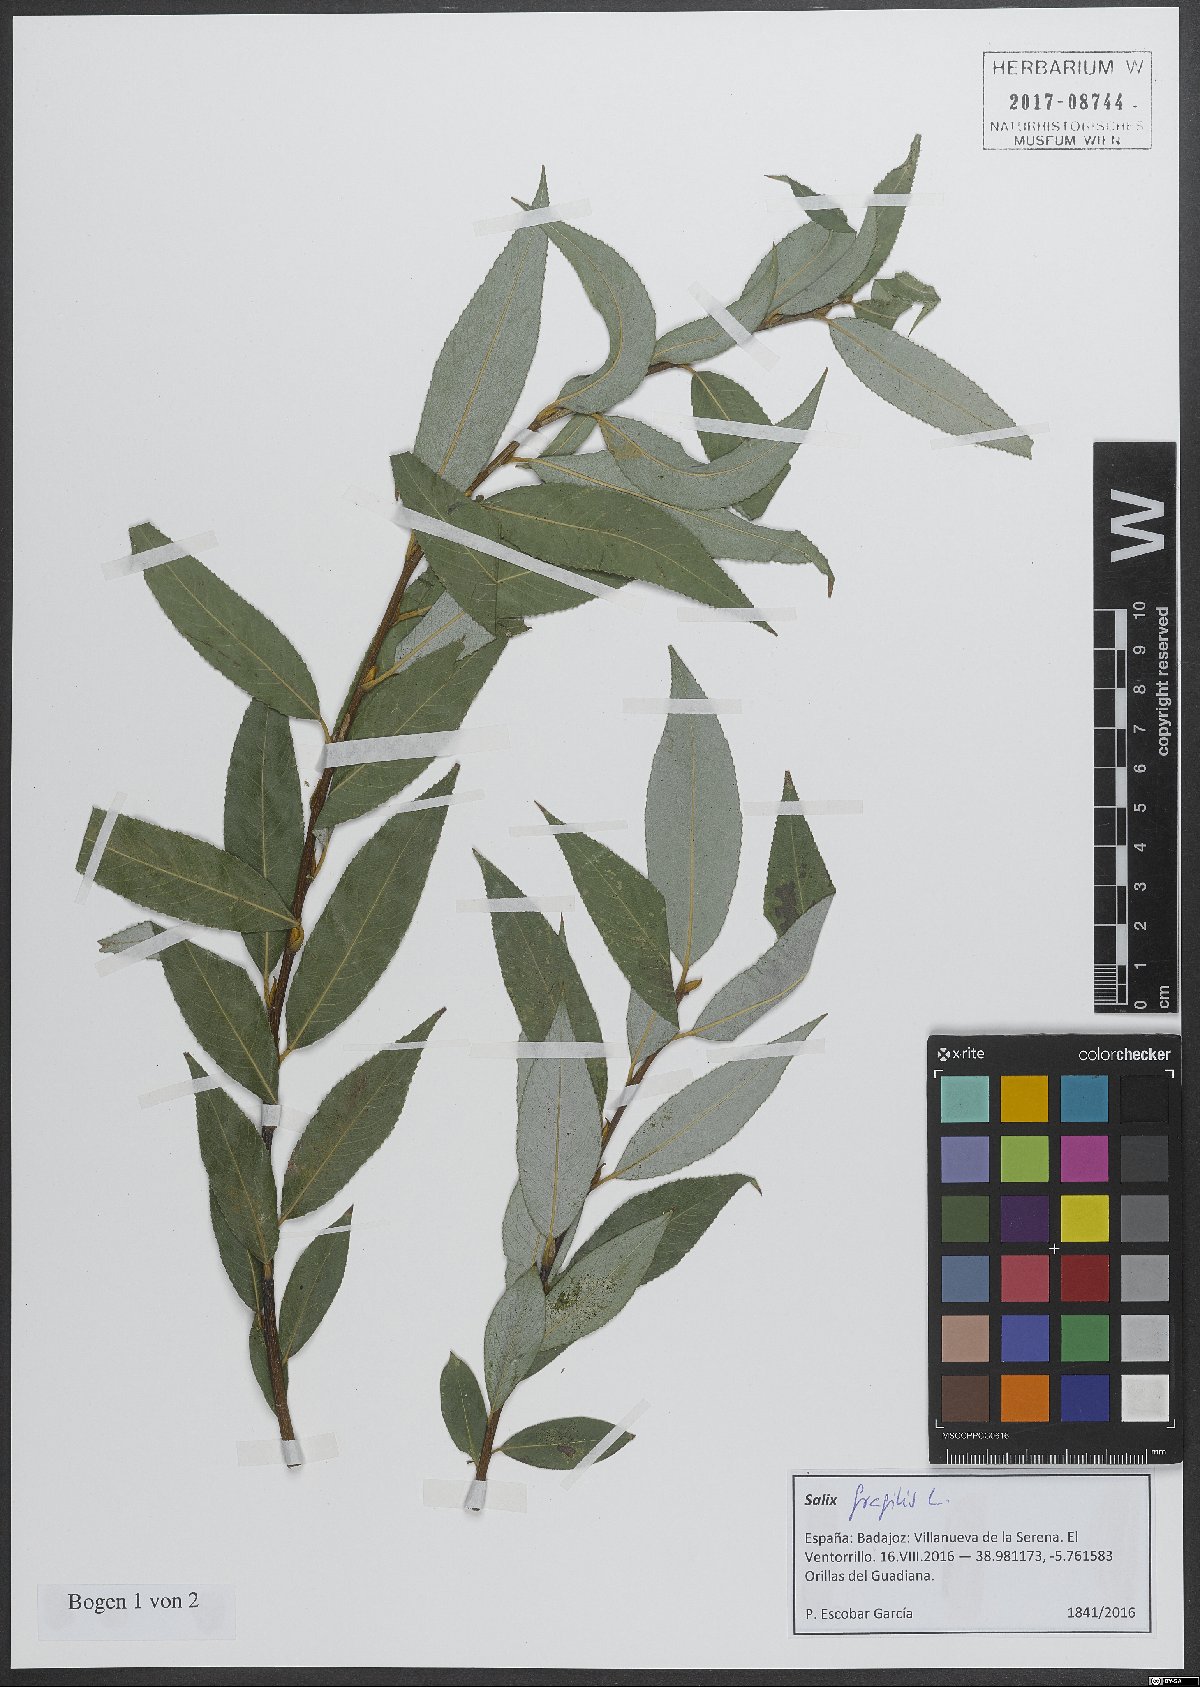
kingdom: Plantae
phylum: Tracheophyta
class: Magnoliopsida
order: Malpighiales
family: Salicaceae
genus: Salix
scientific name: Salix fragilis
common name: Crack willow
